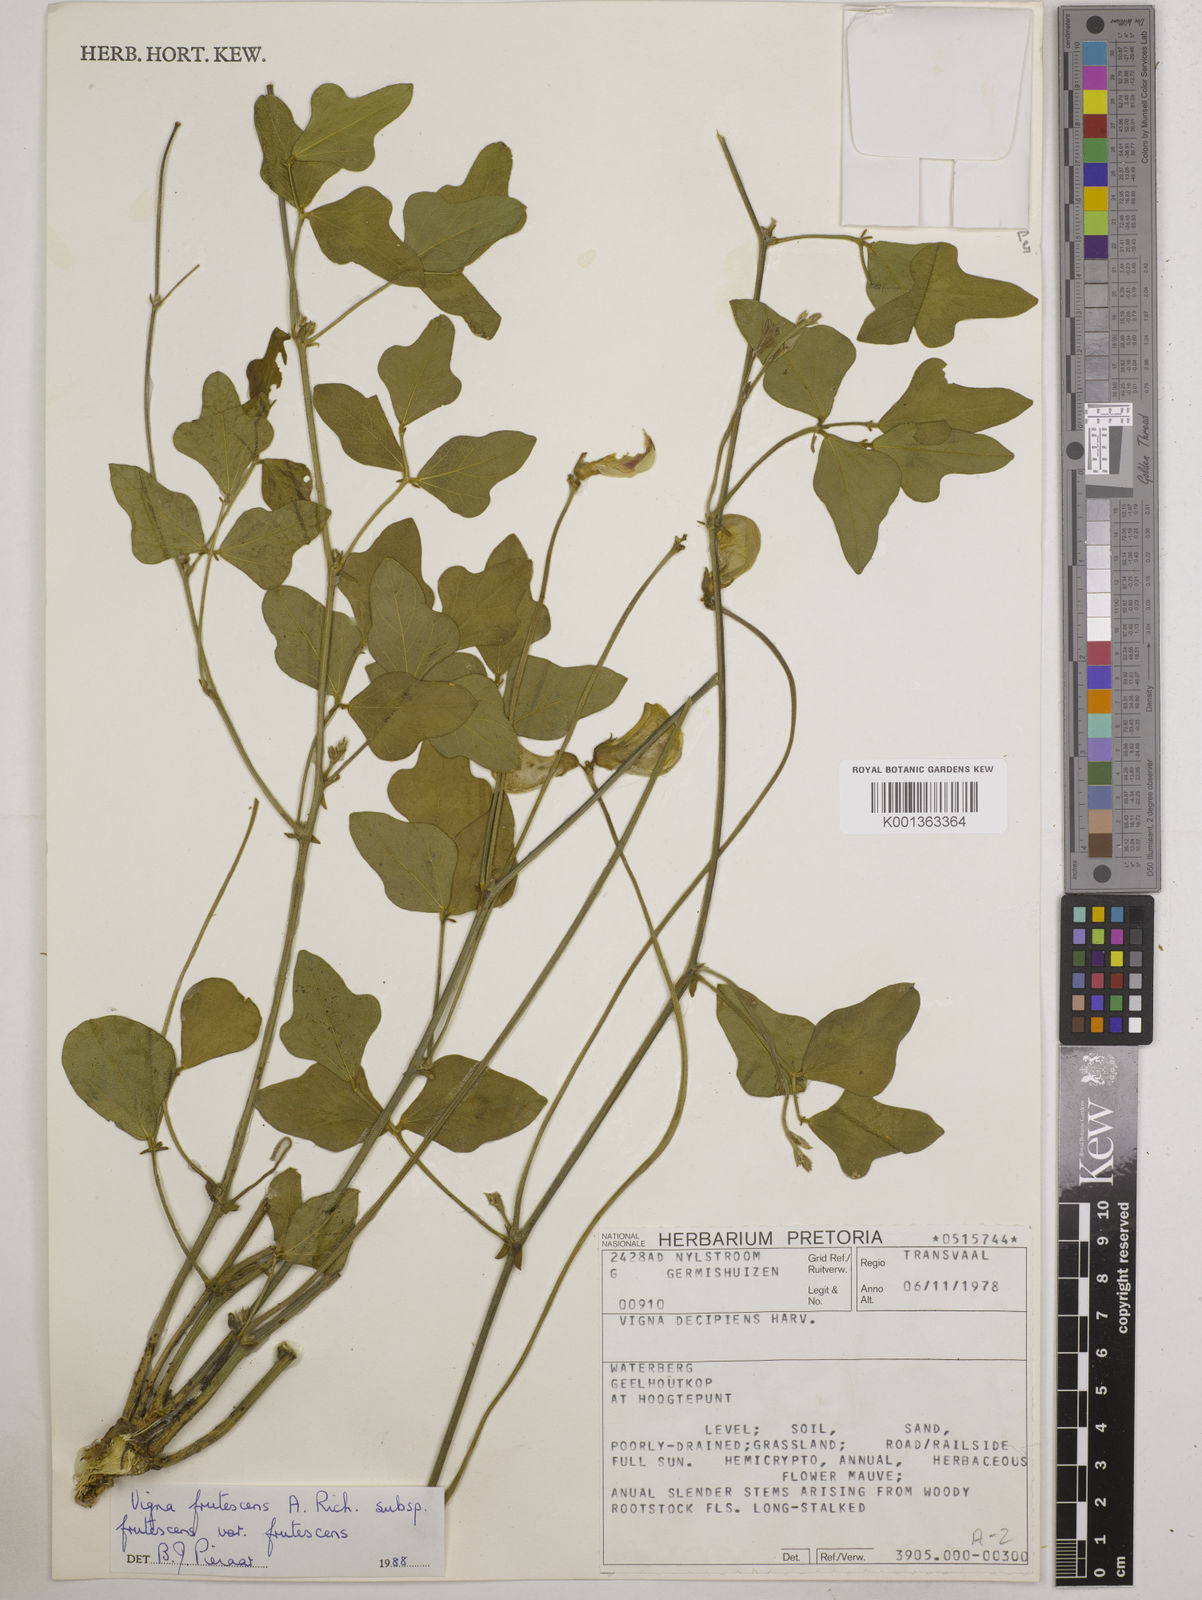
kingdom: Plantae
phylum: Tracheophyta
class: Magnoliopsida
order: Fabales
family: Fabaceae
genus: Vigna
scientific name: Vigna frutescens
